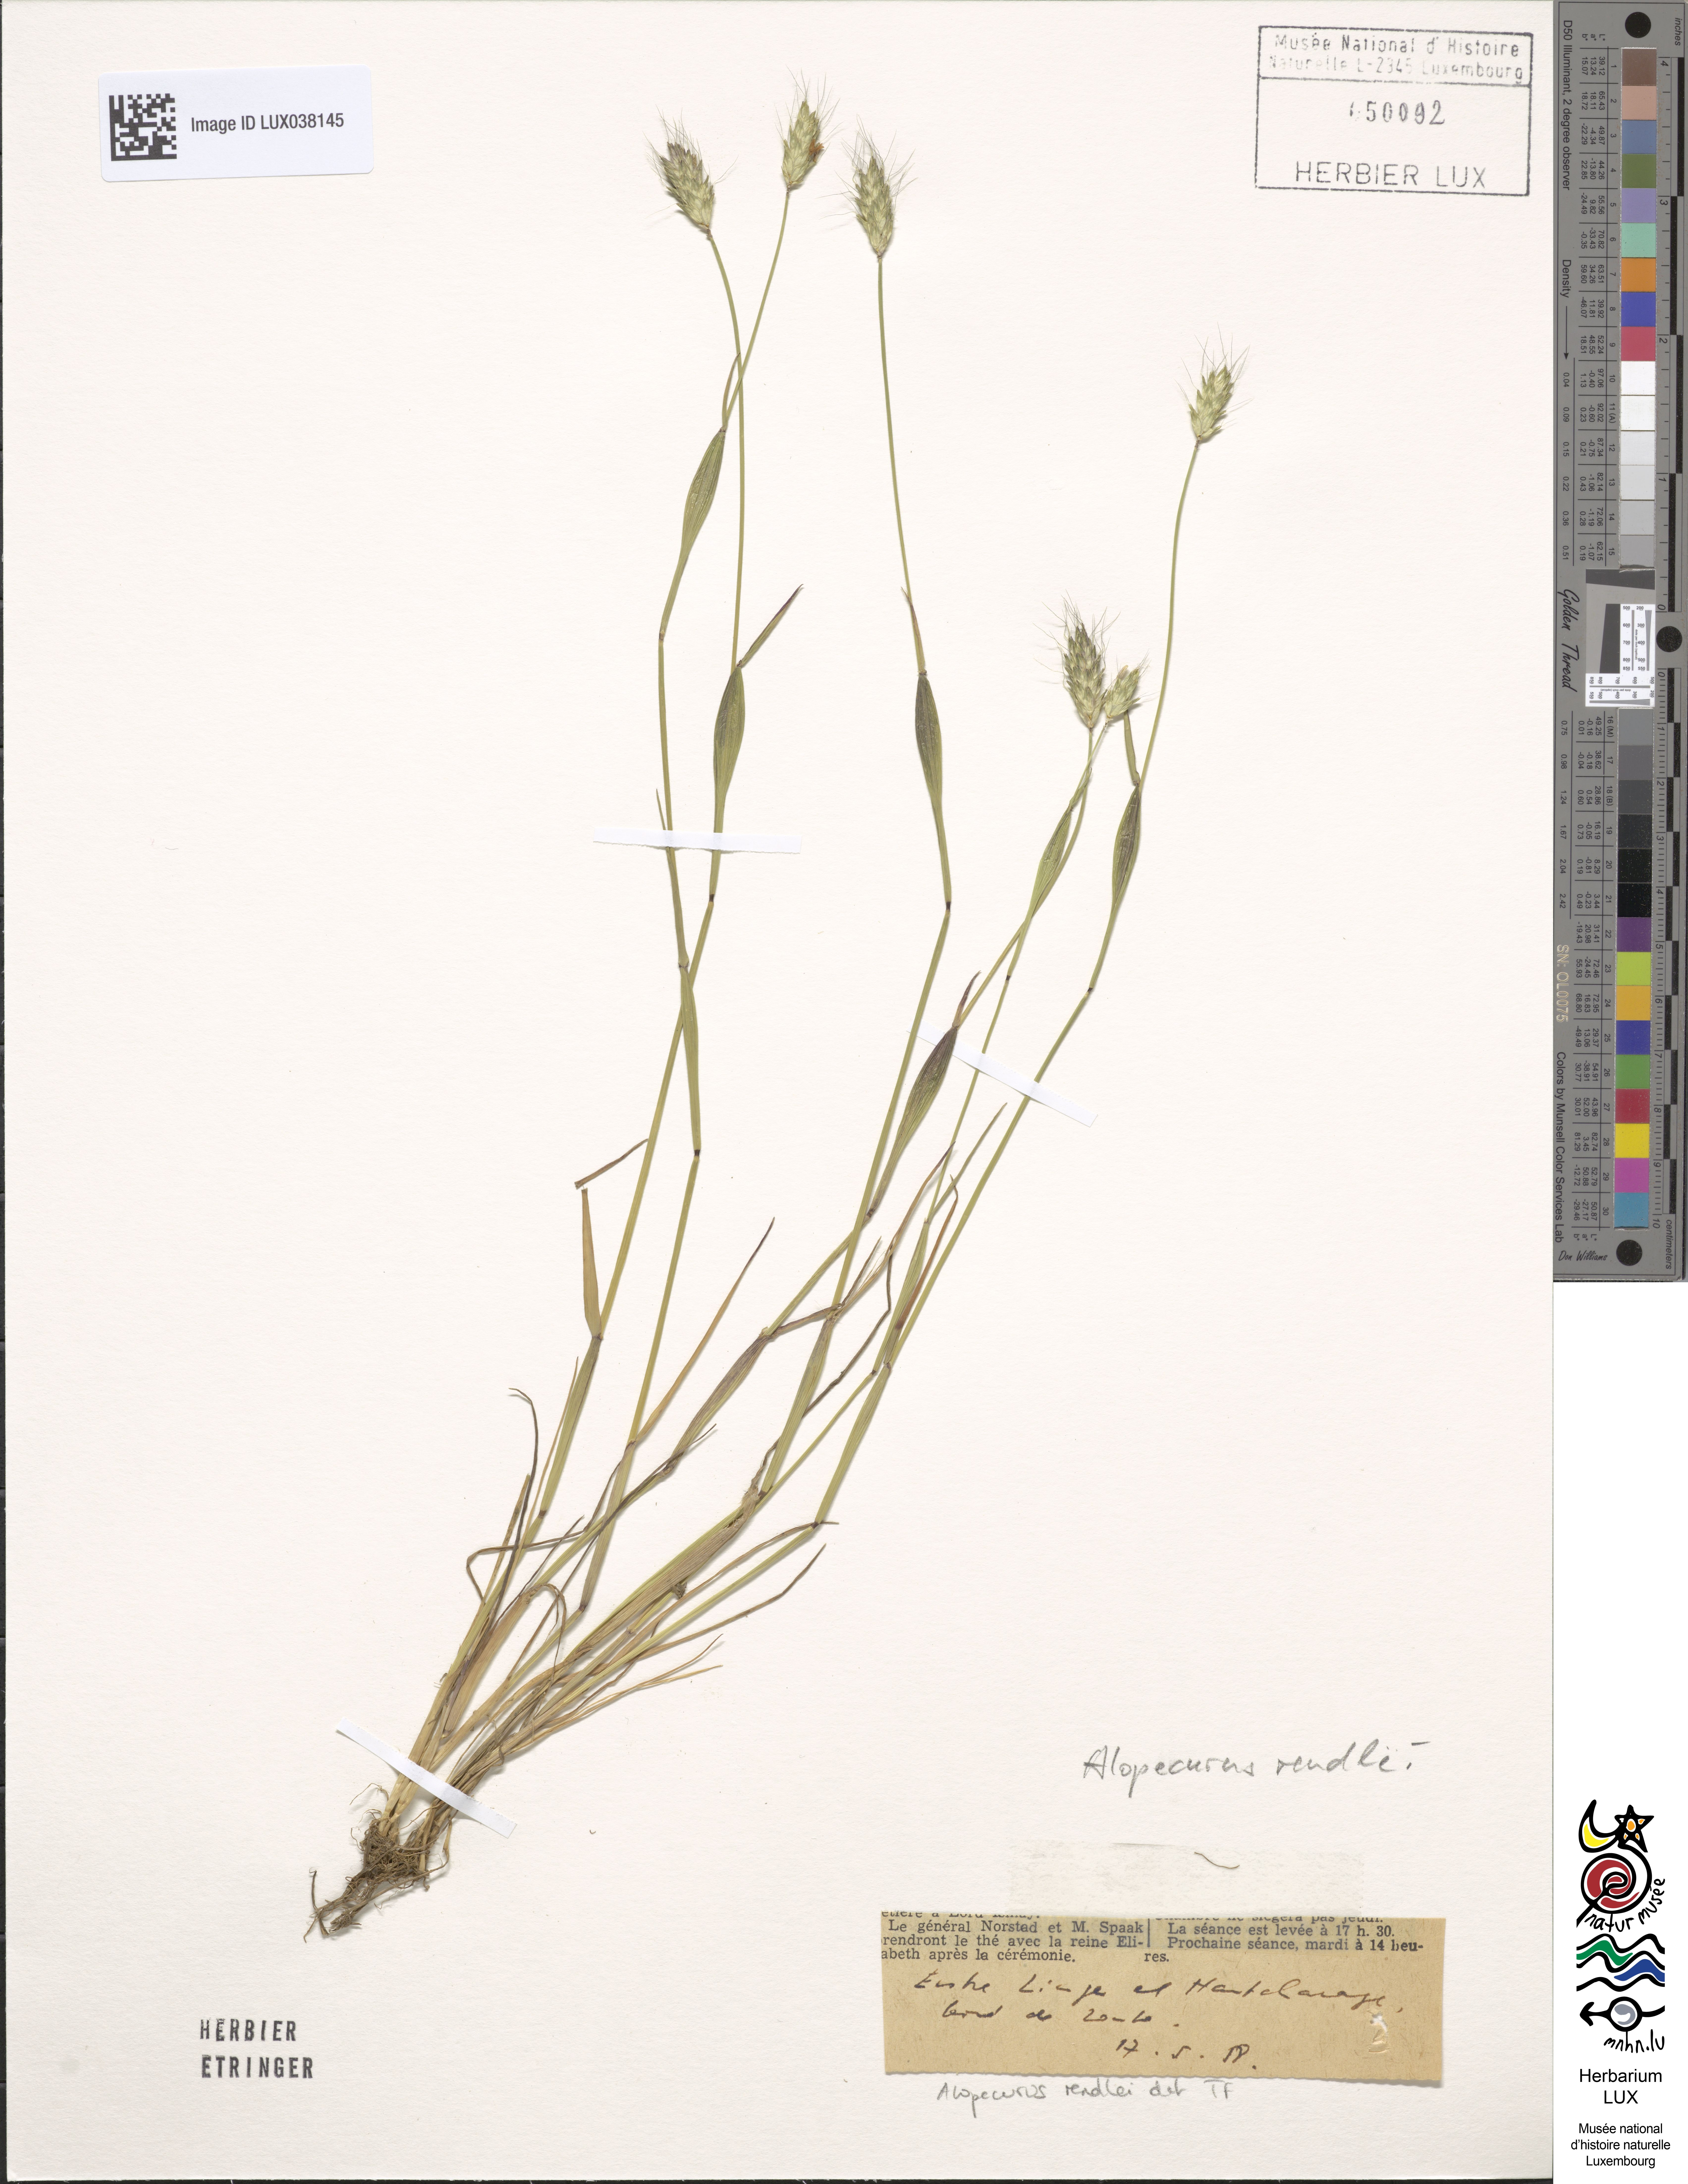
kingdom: Plantae
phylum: Tracheophyta
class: Liliopsida
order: Poales
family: Poaceae
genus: Alopecurus
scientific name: Alopecurus rendlei
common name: Rendle's meadow foxtail
